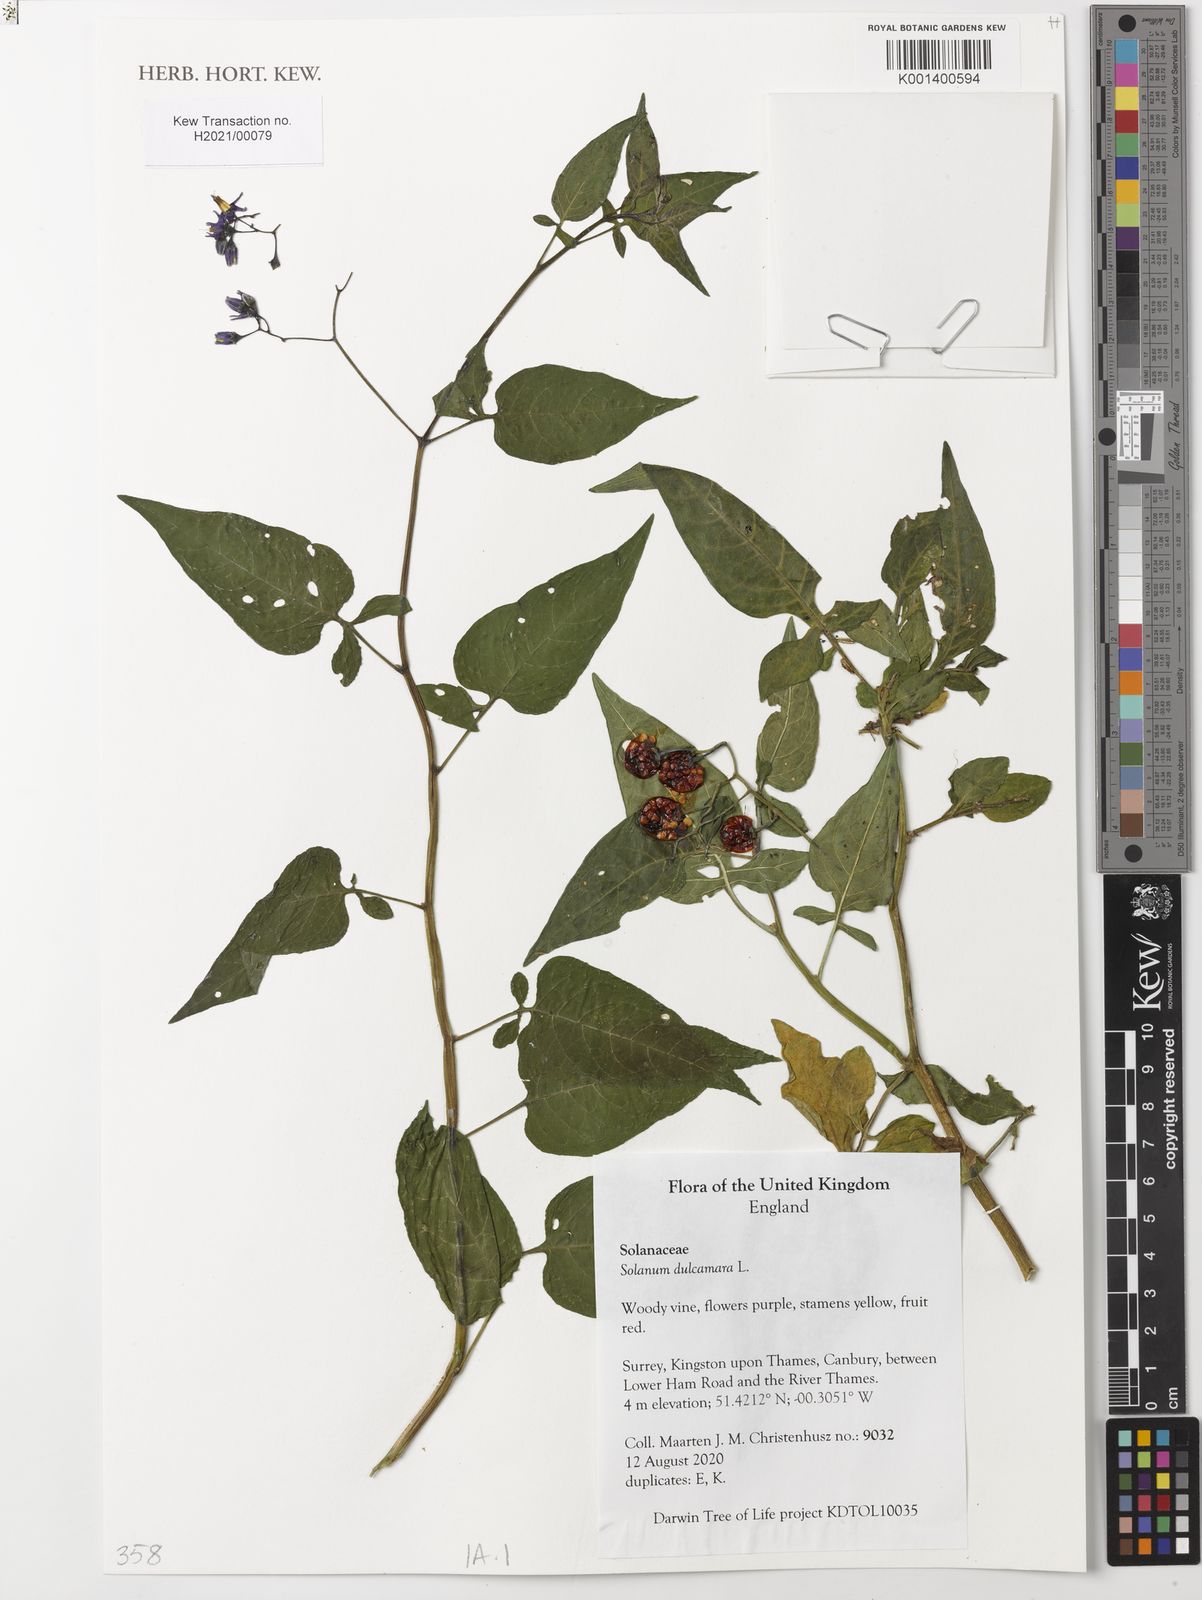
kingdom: Plantae
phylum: Tracheophyta
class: Magnoliopsida
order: Solanales
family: Solanaceae
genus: Solanum
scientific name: Solanum dulcamara
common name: Climbing nightshade
